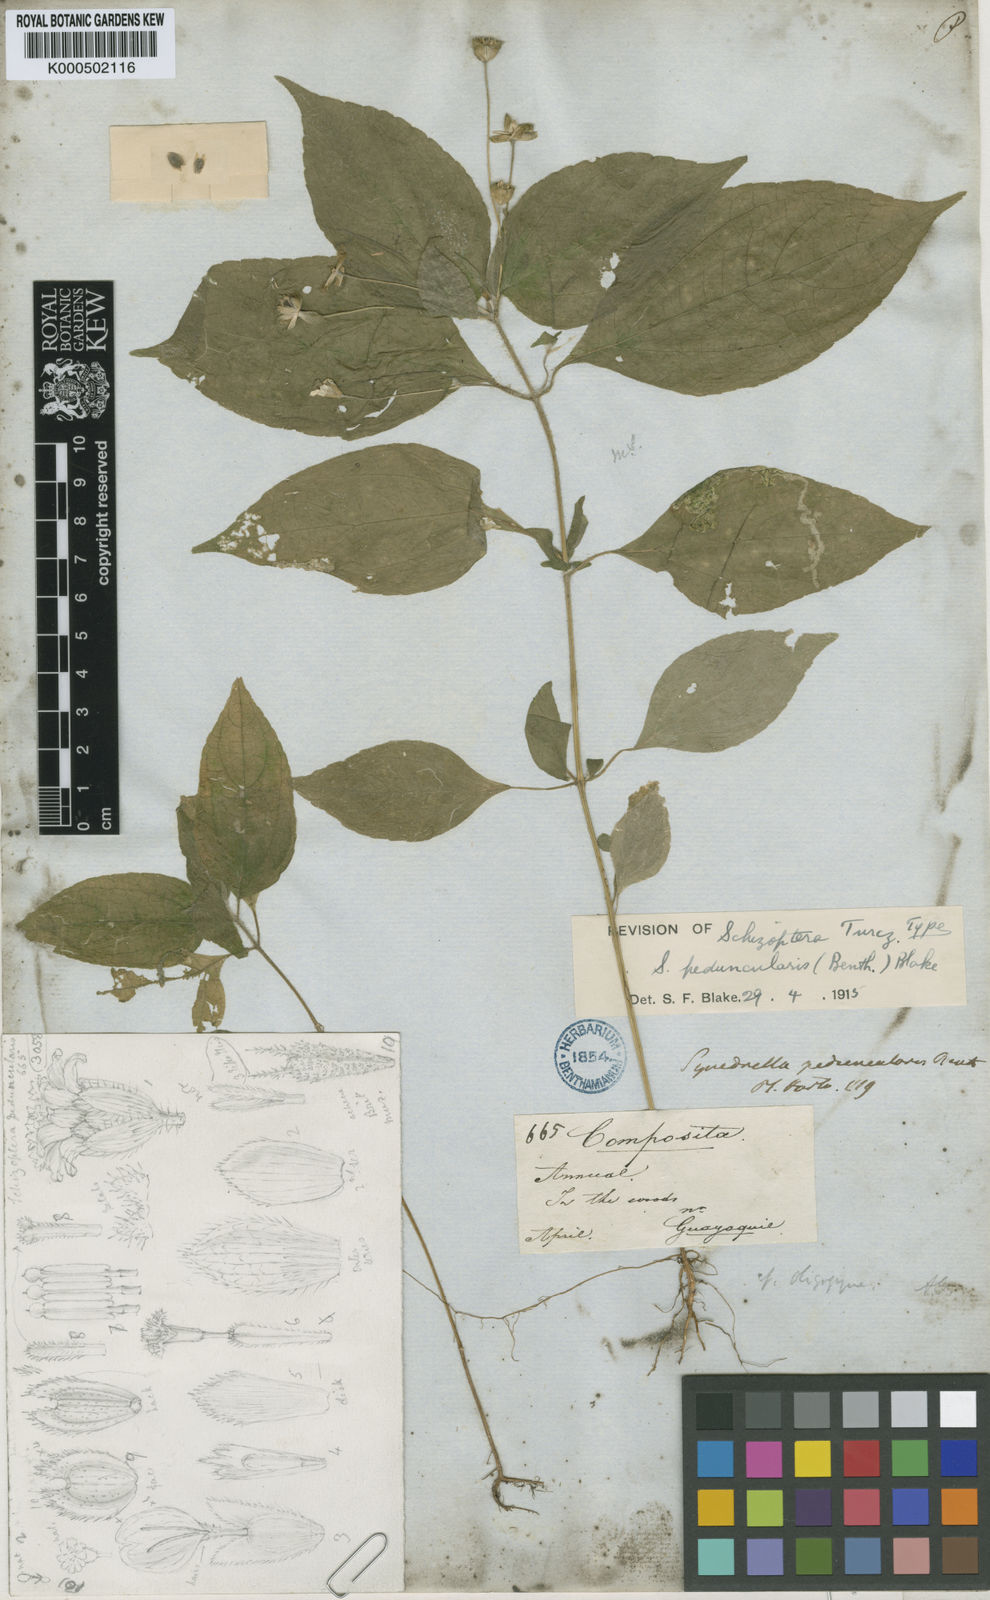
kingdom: Plantae
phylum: Tracheophyta
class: Magnoliopsida
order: Asterales
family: Asteraceae
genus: Schizoptera
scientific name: Schizoptera peduncularis
